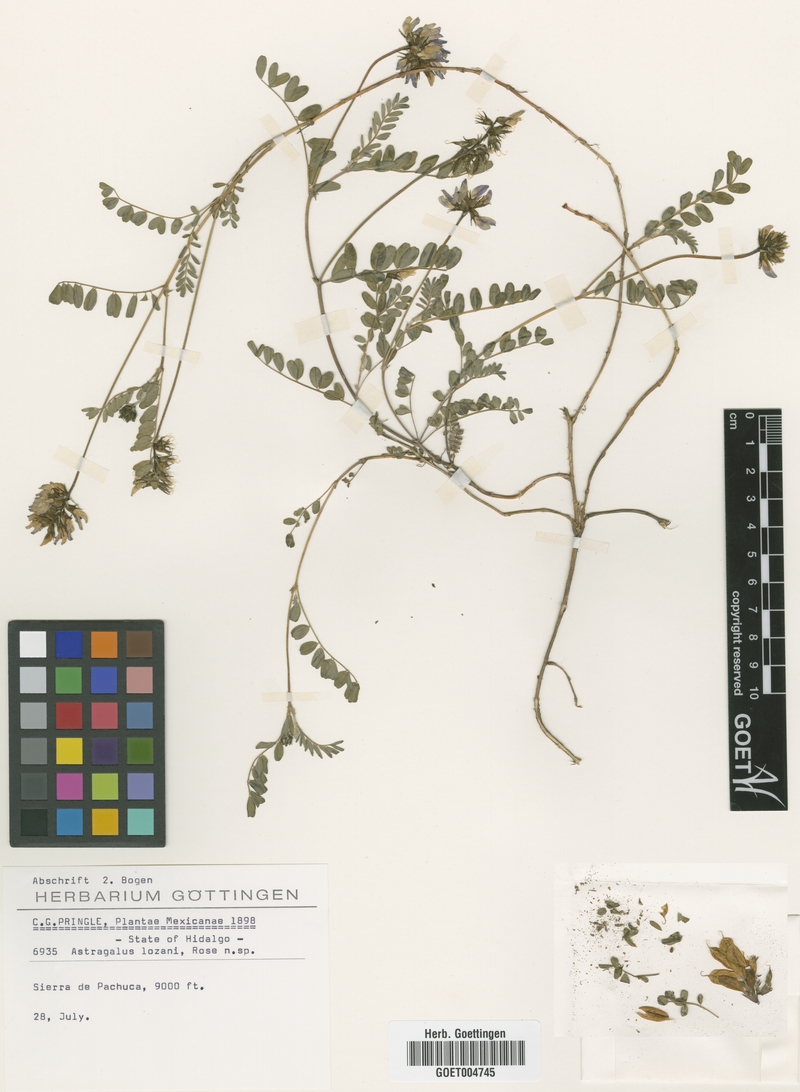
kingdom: Plantae
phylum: Tracheophyta
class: Magnoliopsida
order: Fabales
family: Fabaceae
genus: Astragalus
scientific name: Astragalus guatemalensis
